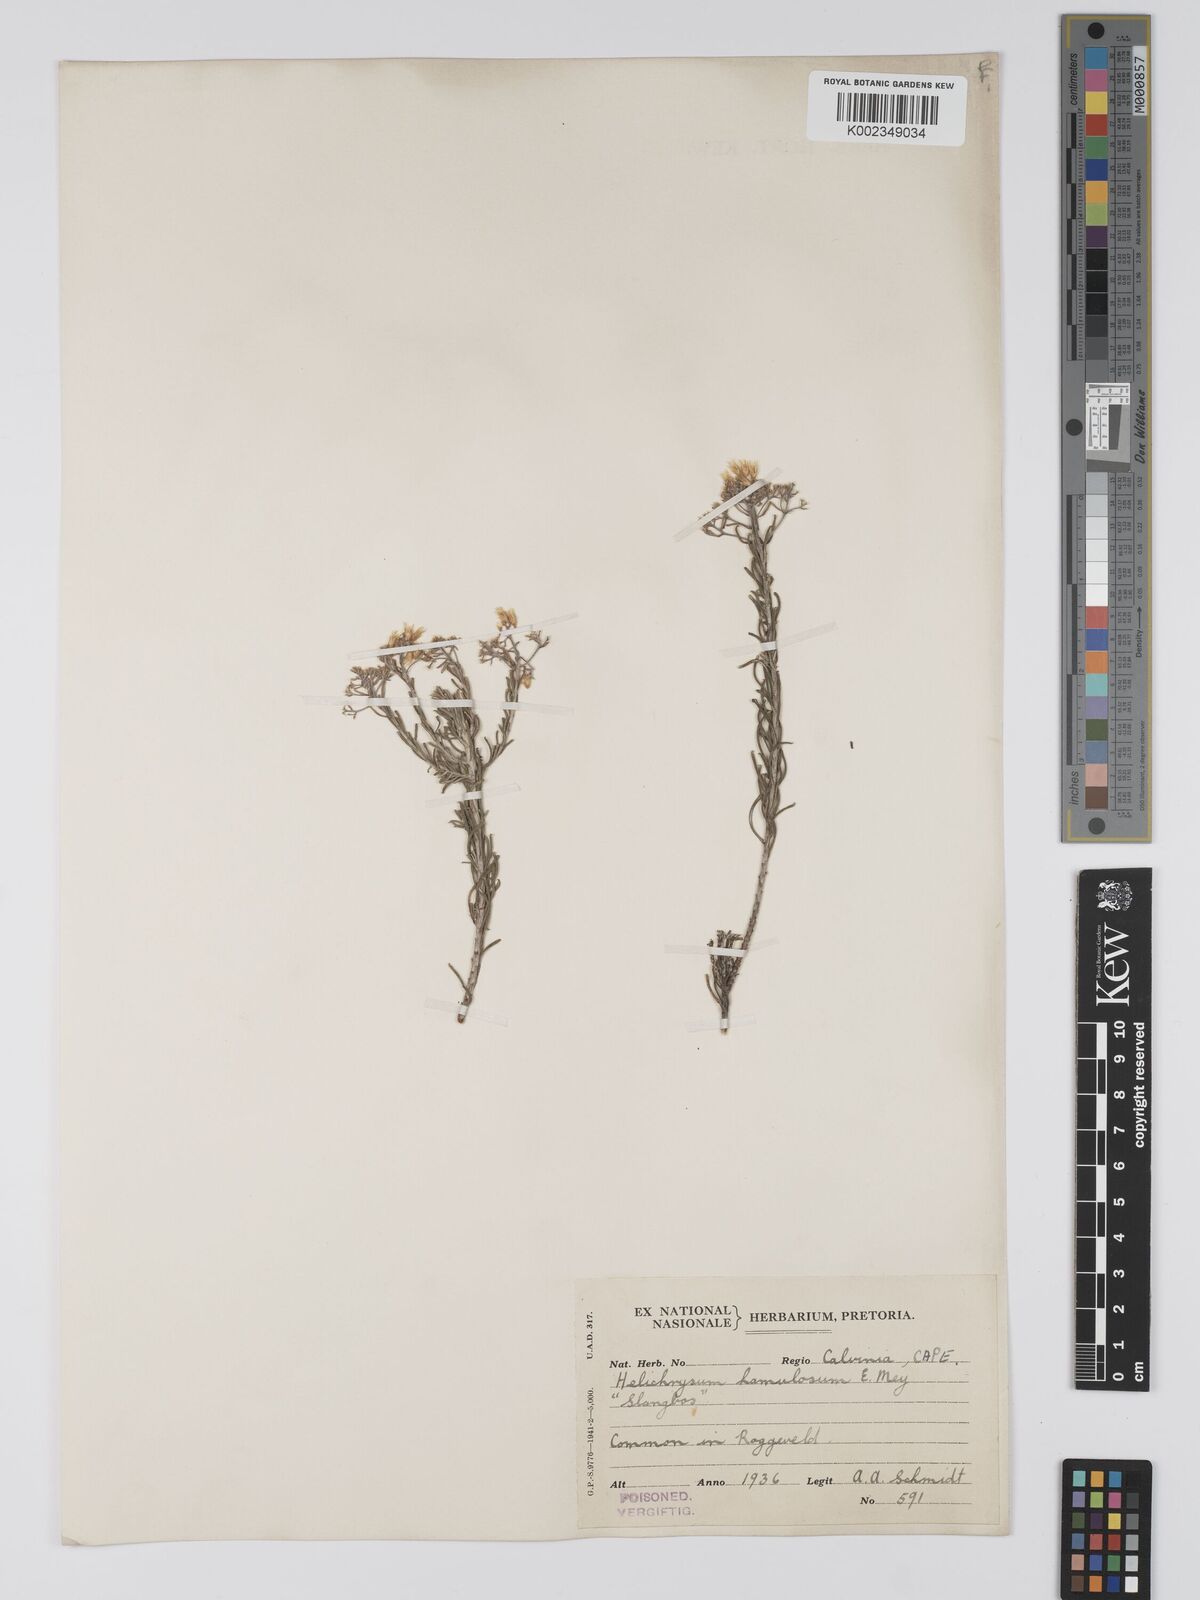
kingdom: Plantae
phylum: Tracheophyta
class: Magnoliopsida
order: Asterales
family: Asteraceae
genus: Helichrysum
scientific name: Helichrysum hamulosum
